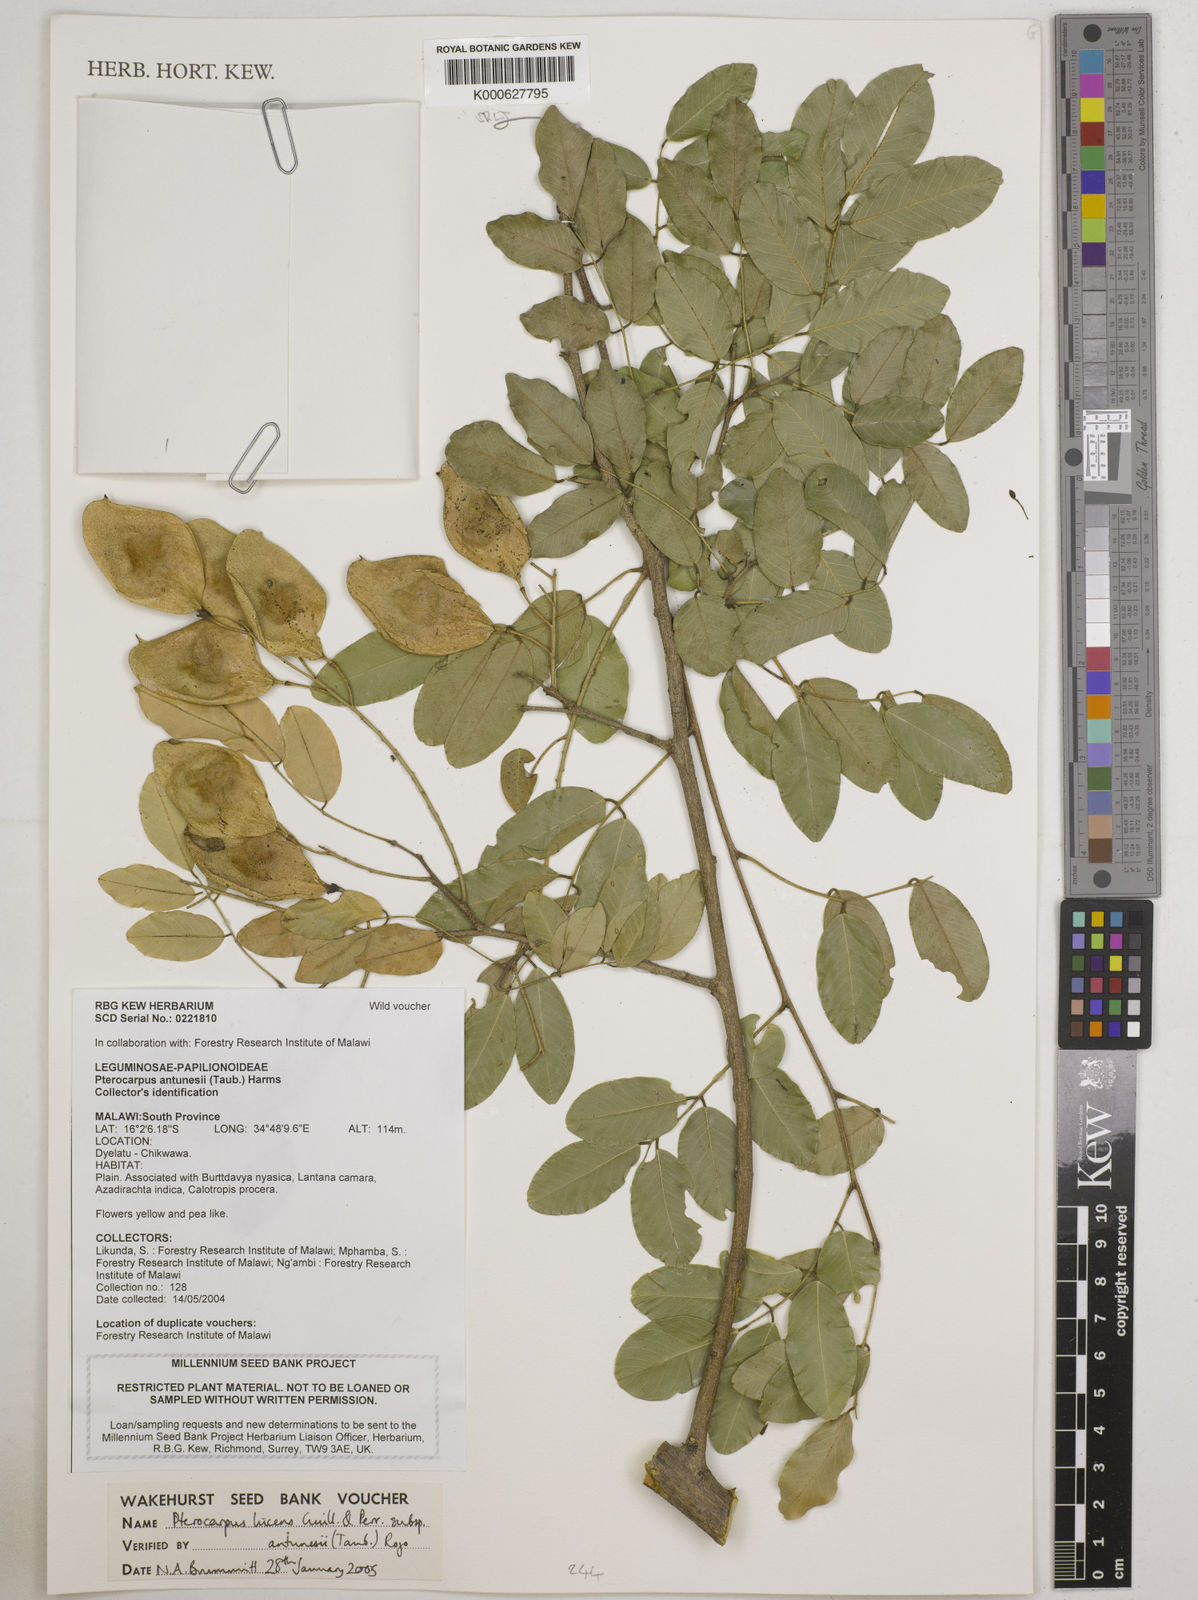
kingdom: Plantae
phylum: Tracheophyta
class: Magnoliopsida
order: Fabales
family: Fabaceae
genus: Pterocarpus
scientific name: Pterocarpus lucens
